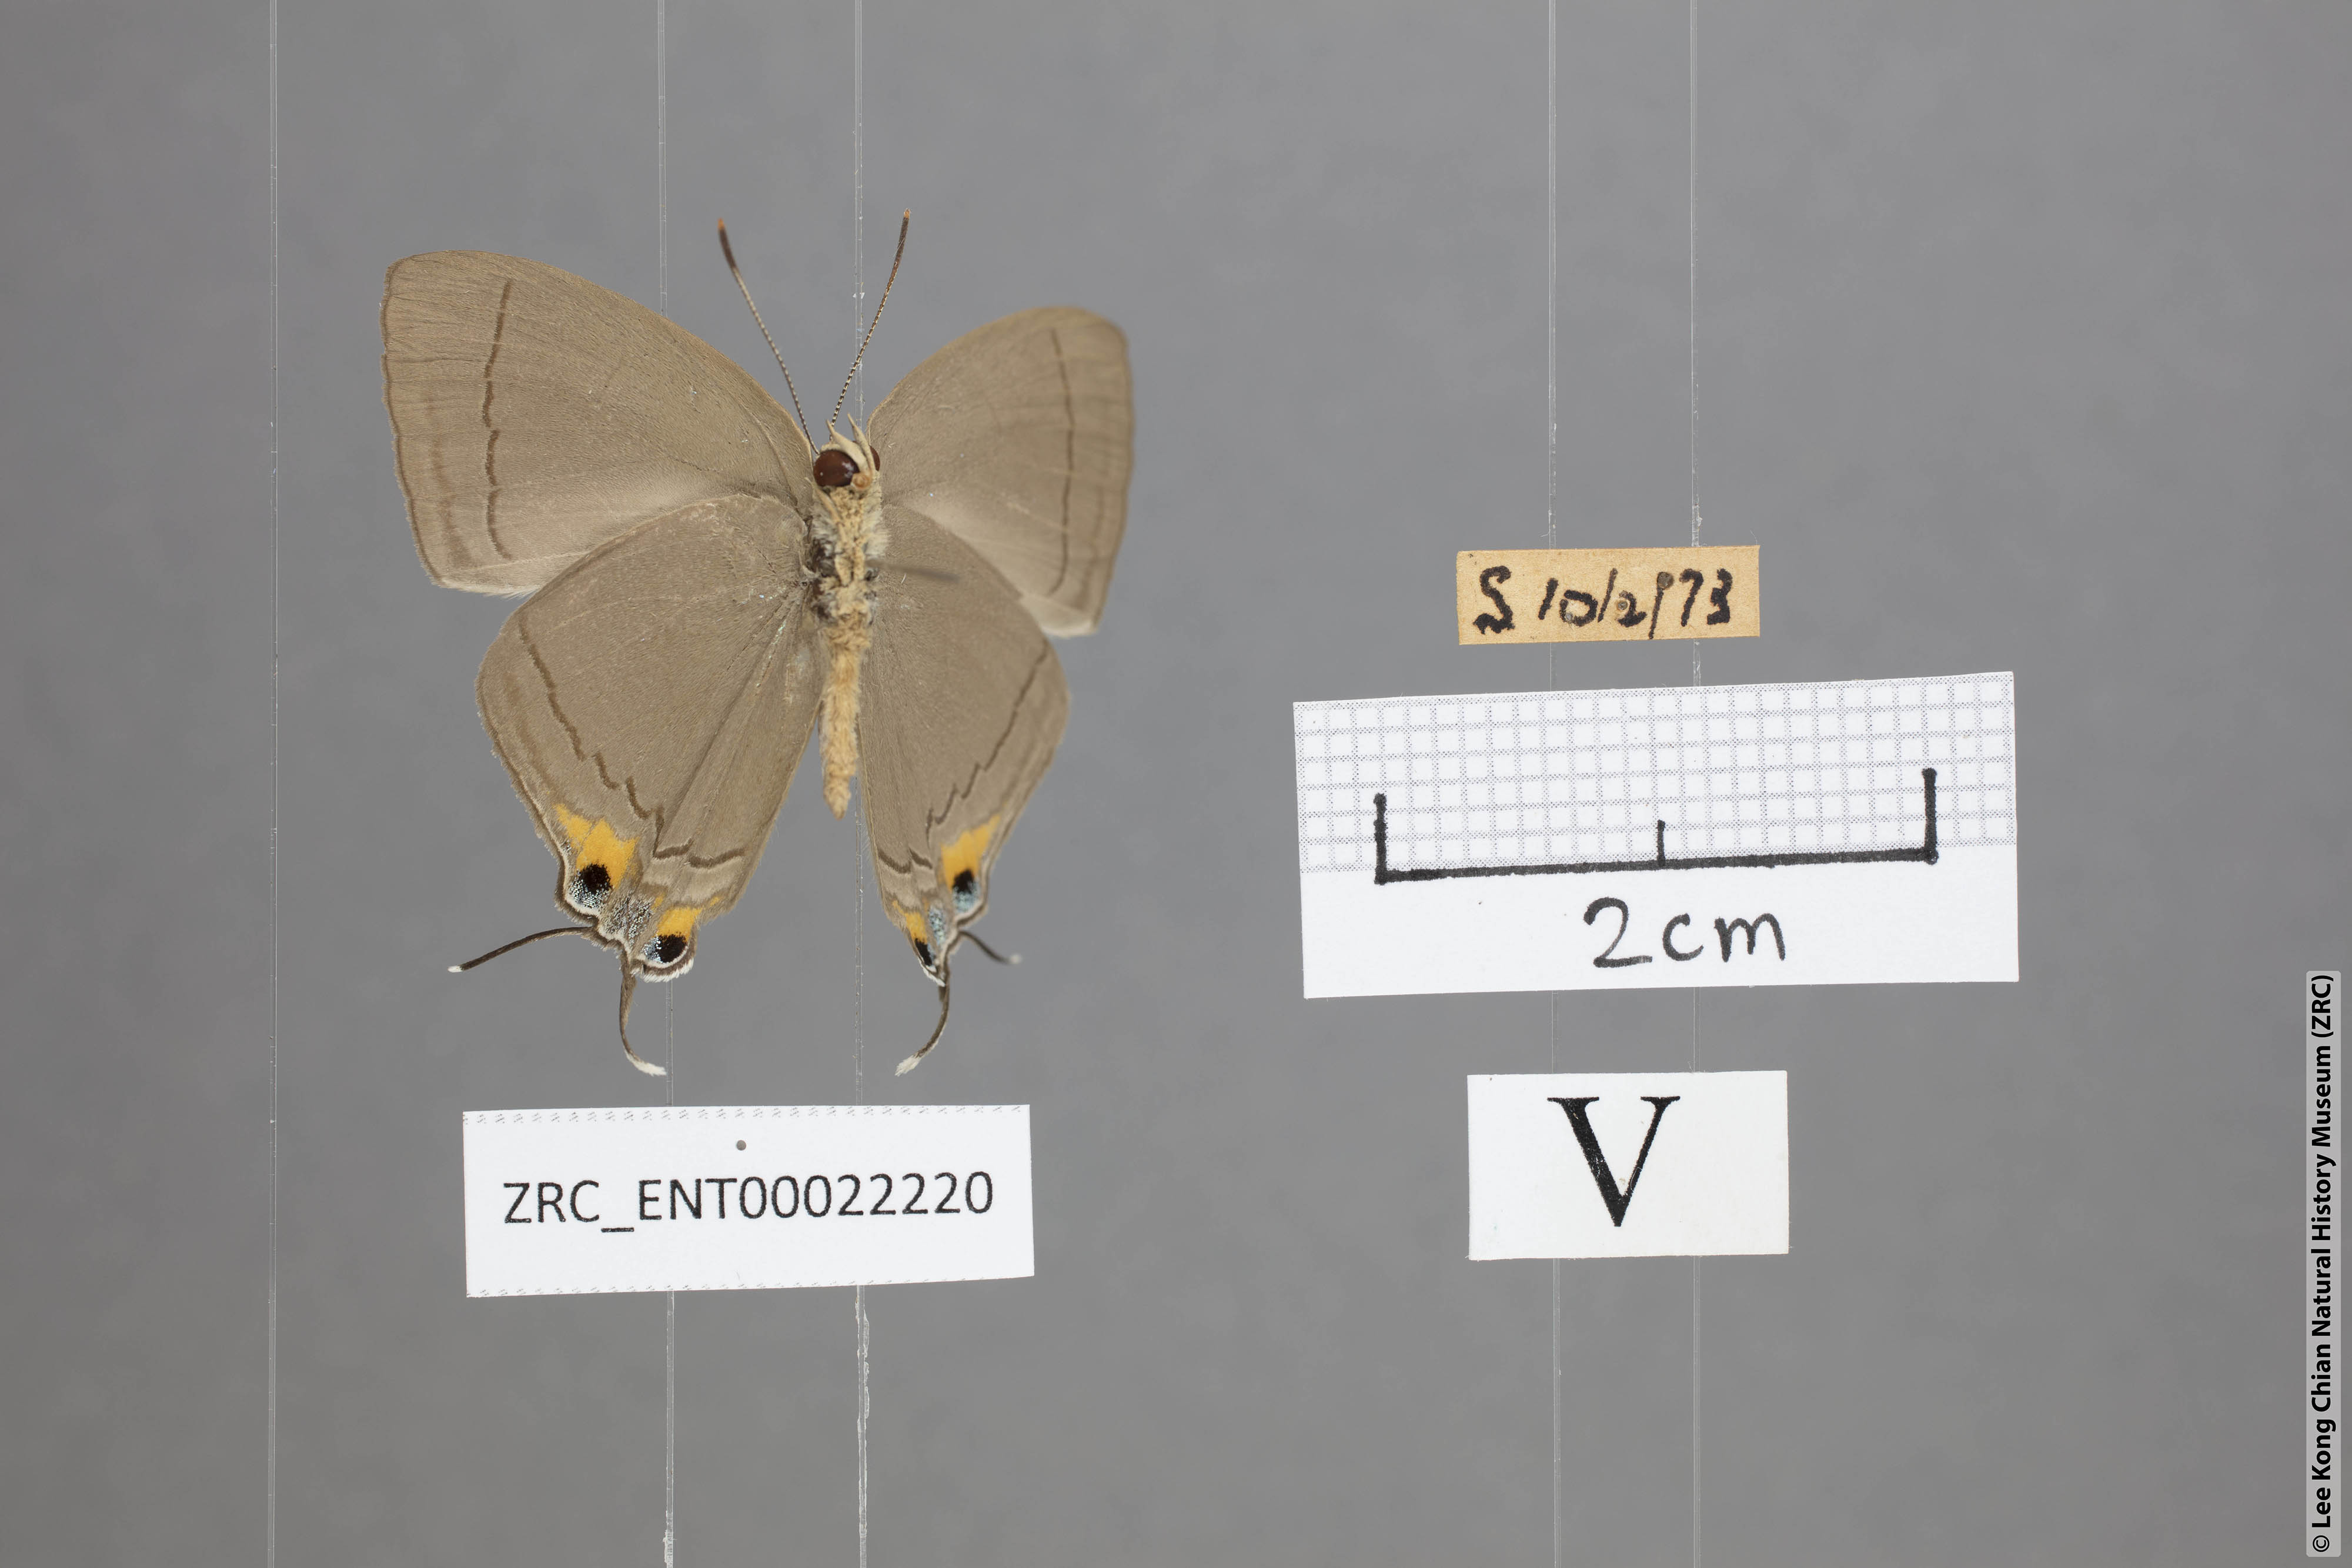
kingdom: Animalia
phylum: Arthropoda
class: Insecta
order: Lepidoptera
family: Lycaenidae
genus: Tajuria
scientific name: Tajuria mantra
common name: Felder's royal
